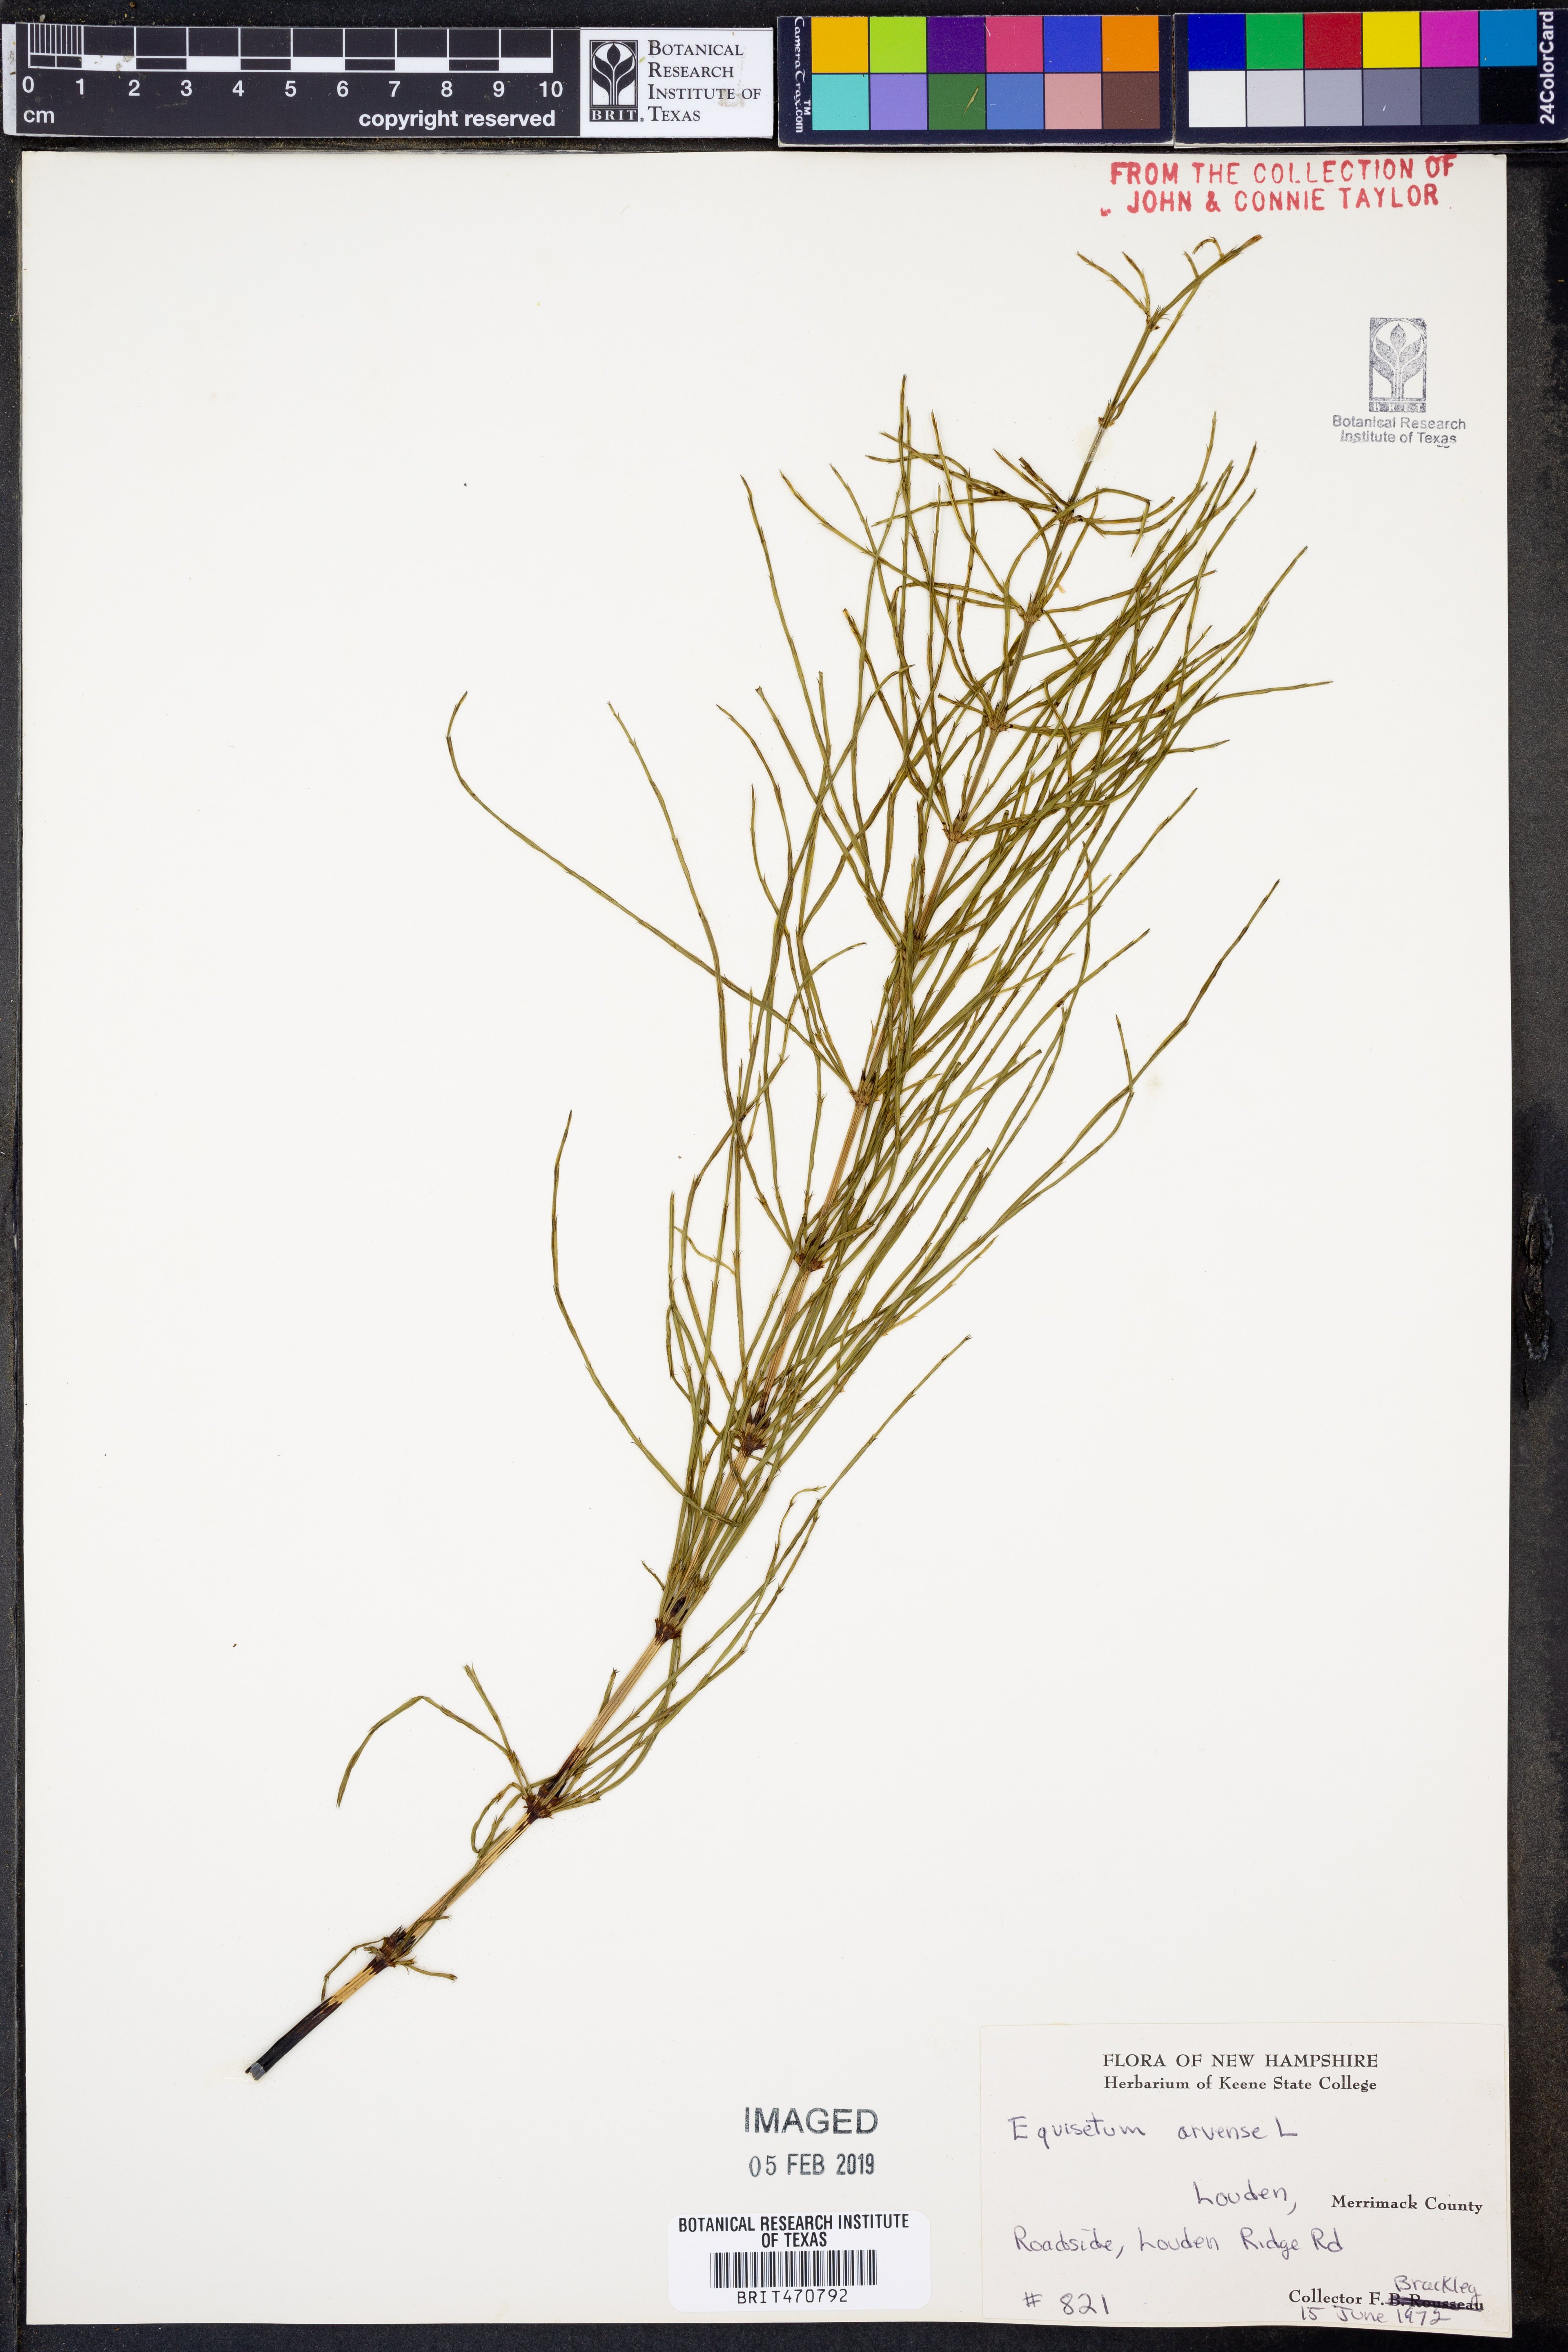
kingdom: Plantae
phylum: Tracheophyta
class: Polypodiopsida
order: Equisetales
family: Equisetaceae
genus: Equisetum
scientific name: Equisetum arvense
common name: Field horsetail
